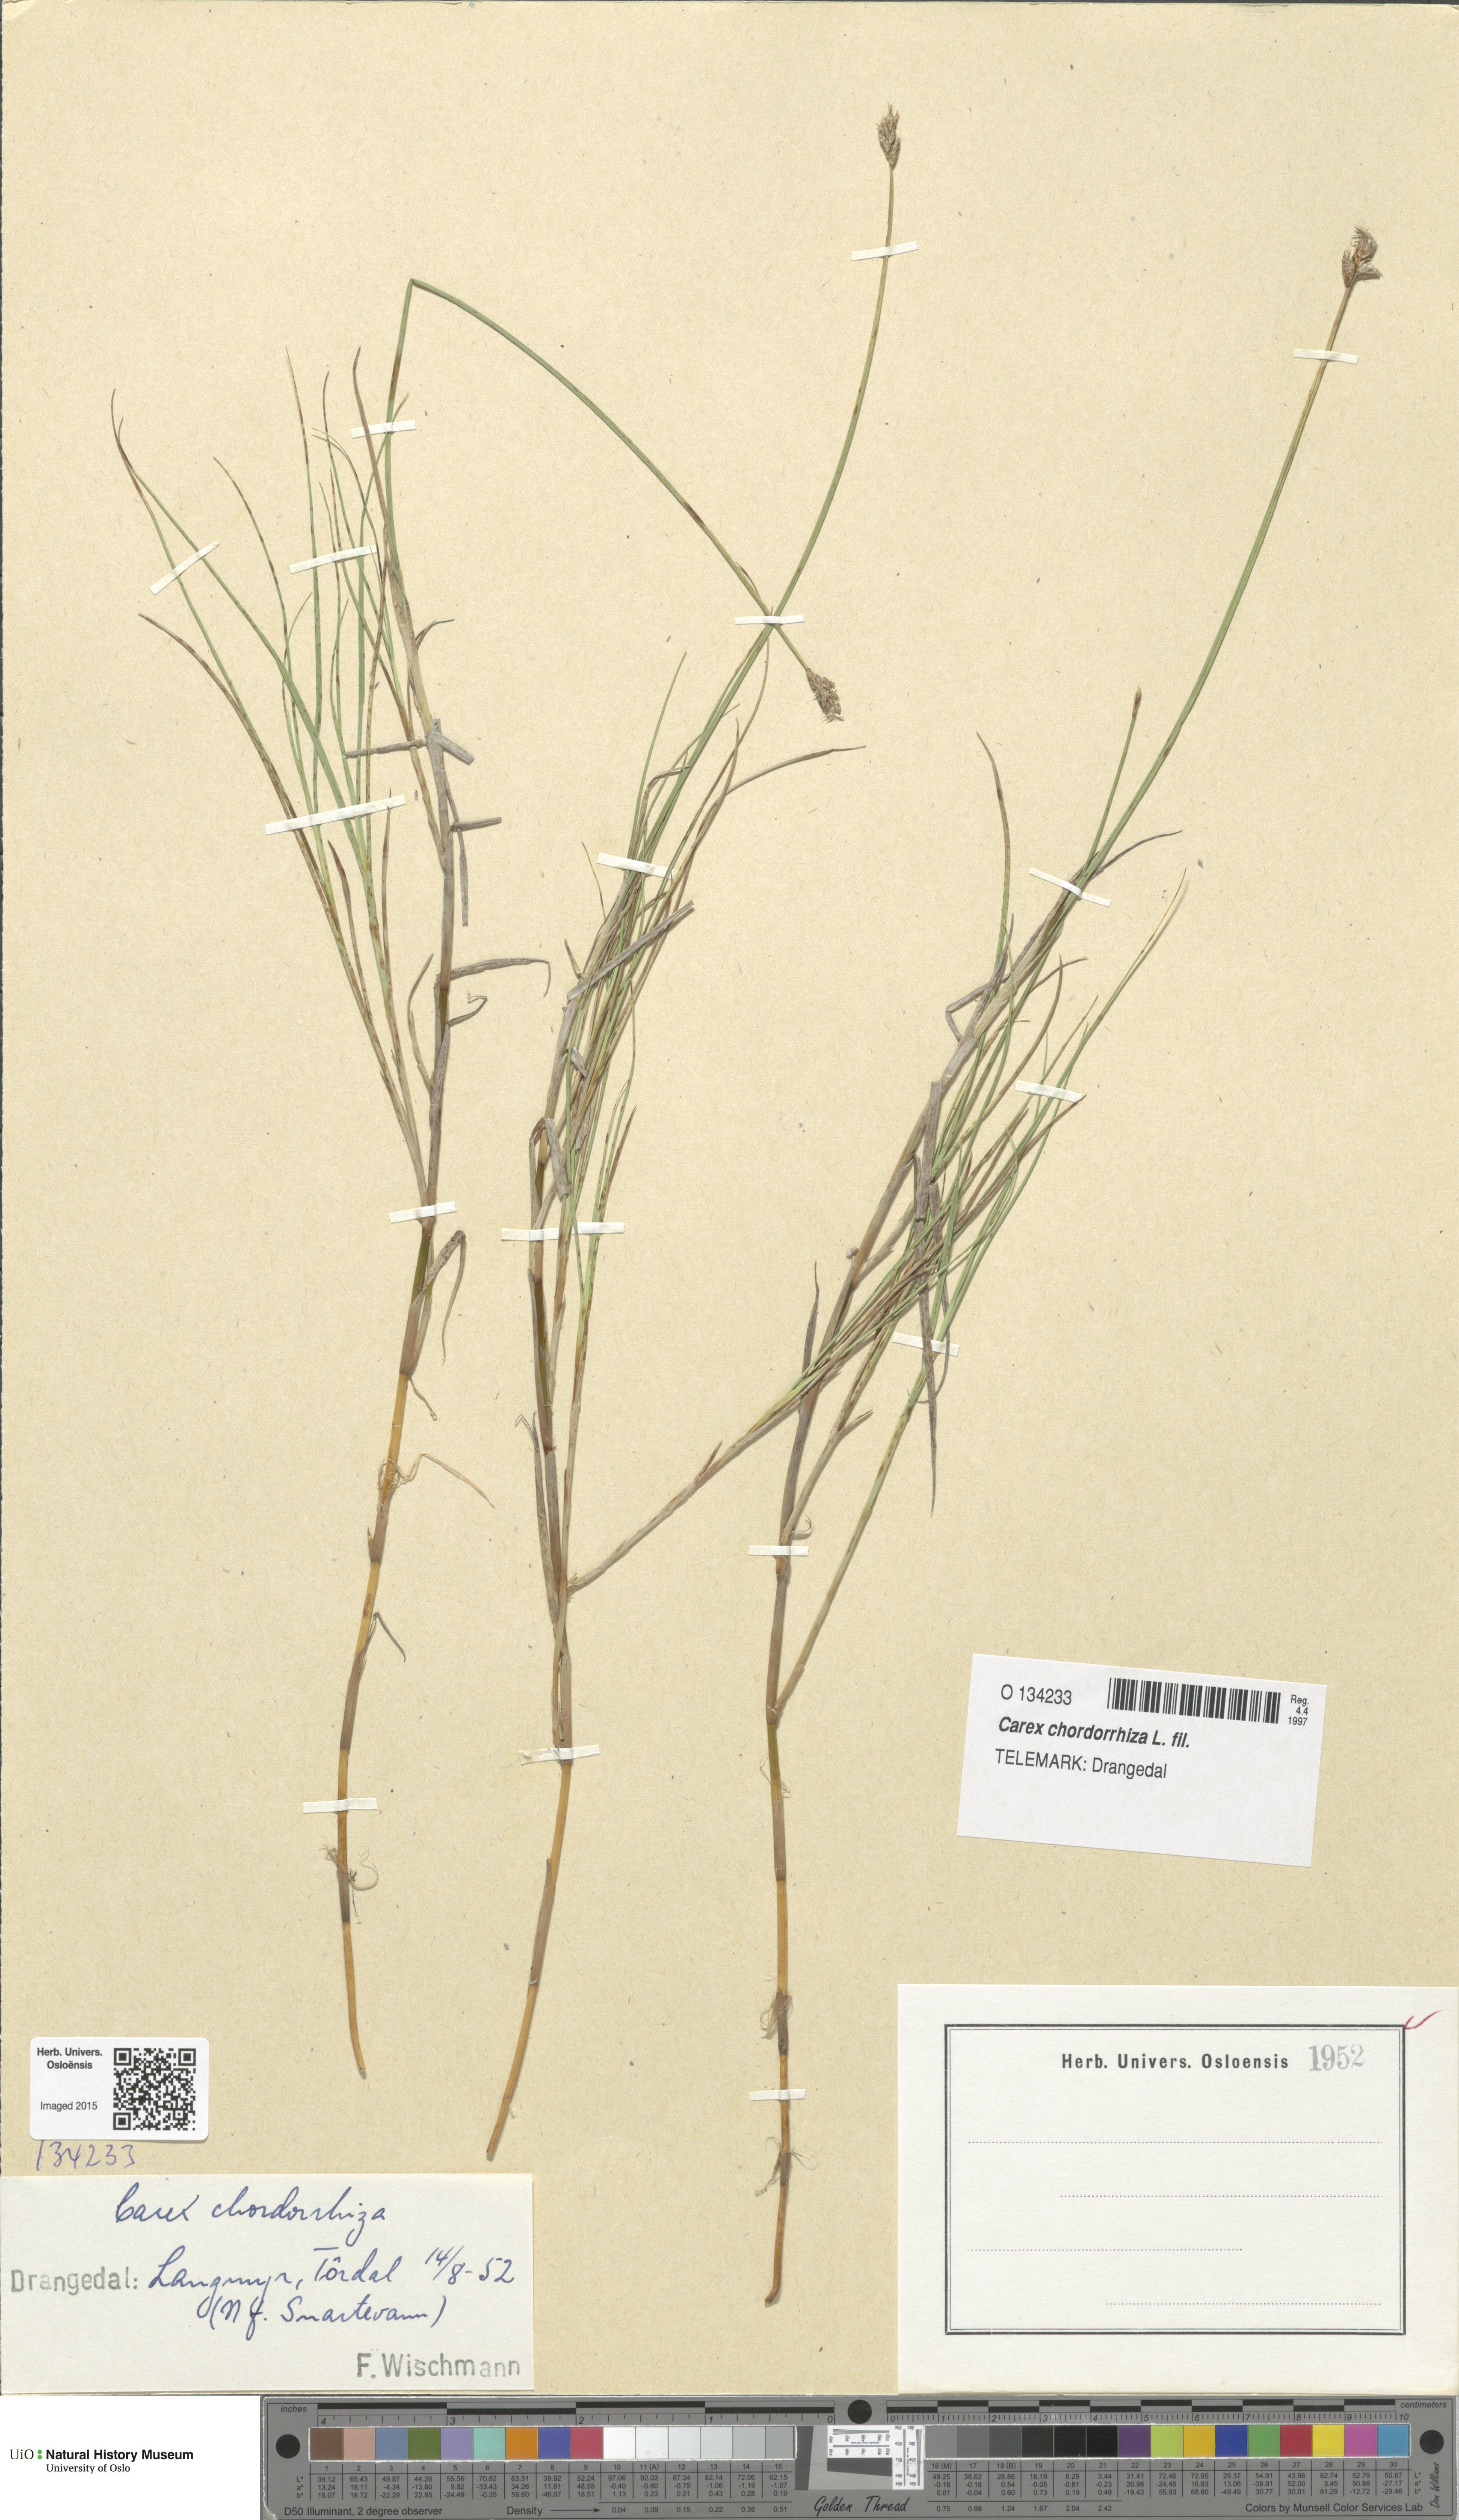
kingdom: Plantae
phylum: Tracheophyta
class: Liliopsida
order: Poales
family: Cyperaceae
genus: Carex
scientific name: Carex chordorrhiza
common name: String sedge
